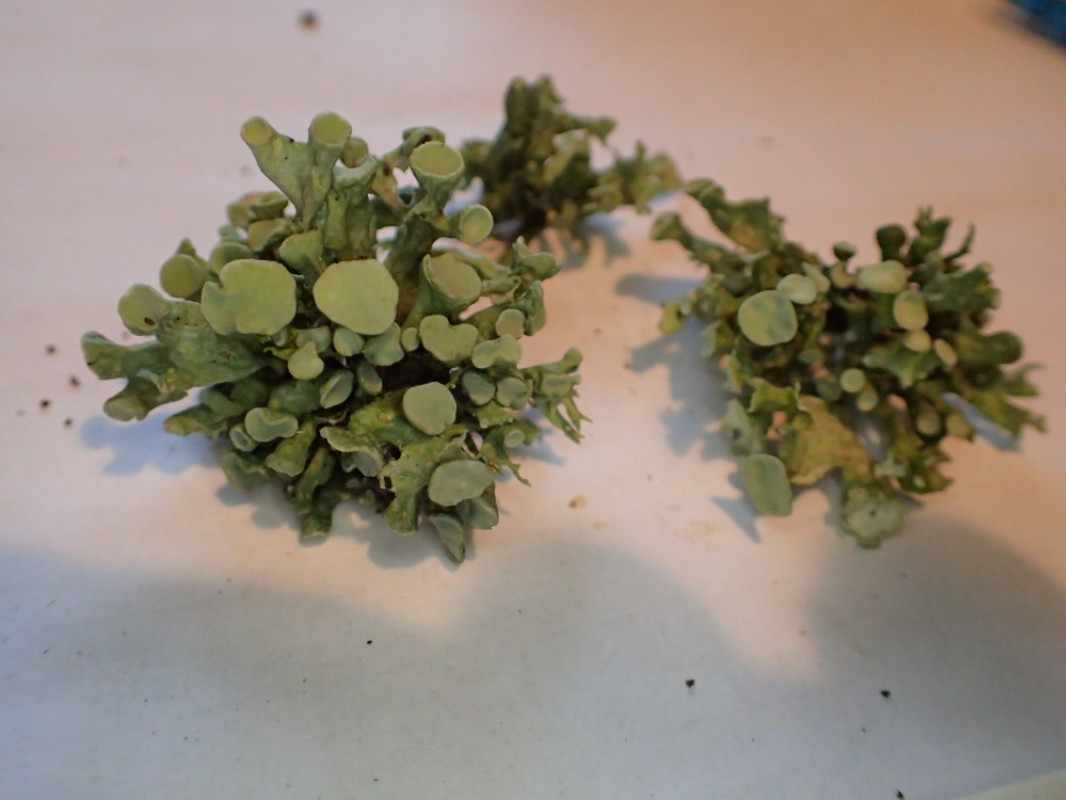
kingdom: Fungi
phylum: Ascomycota
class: Lecanoromycetes
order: Lecanorales
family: Ramalinaceae
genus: Ramalina
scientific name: Ramalina fastigiata
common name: tue-grenlav
